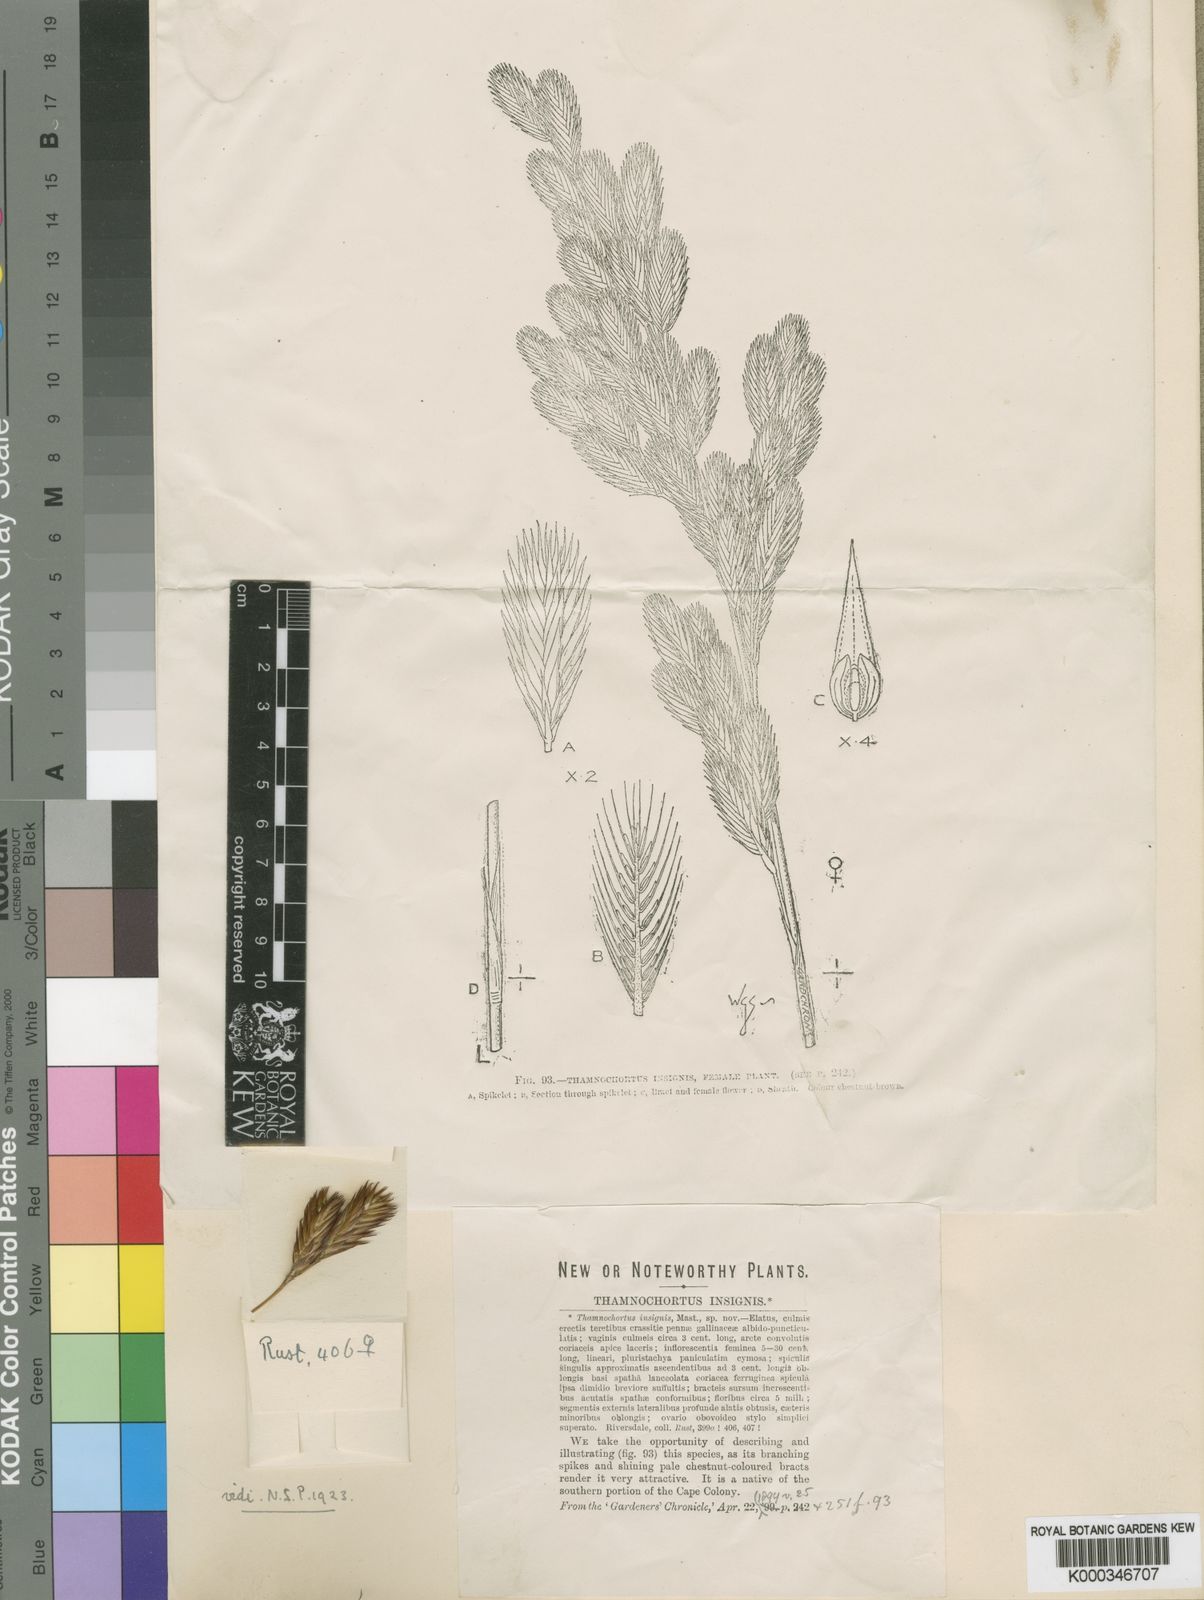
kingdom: Plantae
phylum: Tracheophyta
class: Liliopsida
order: Poales
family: Restionaceae
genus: Thamnochortus
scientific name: Thamnochortus insignis
